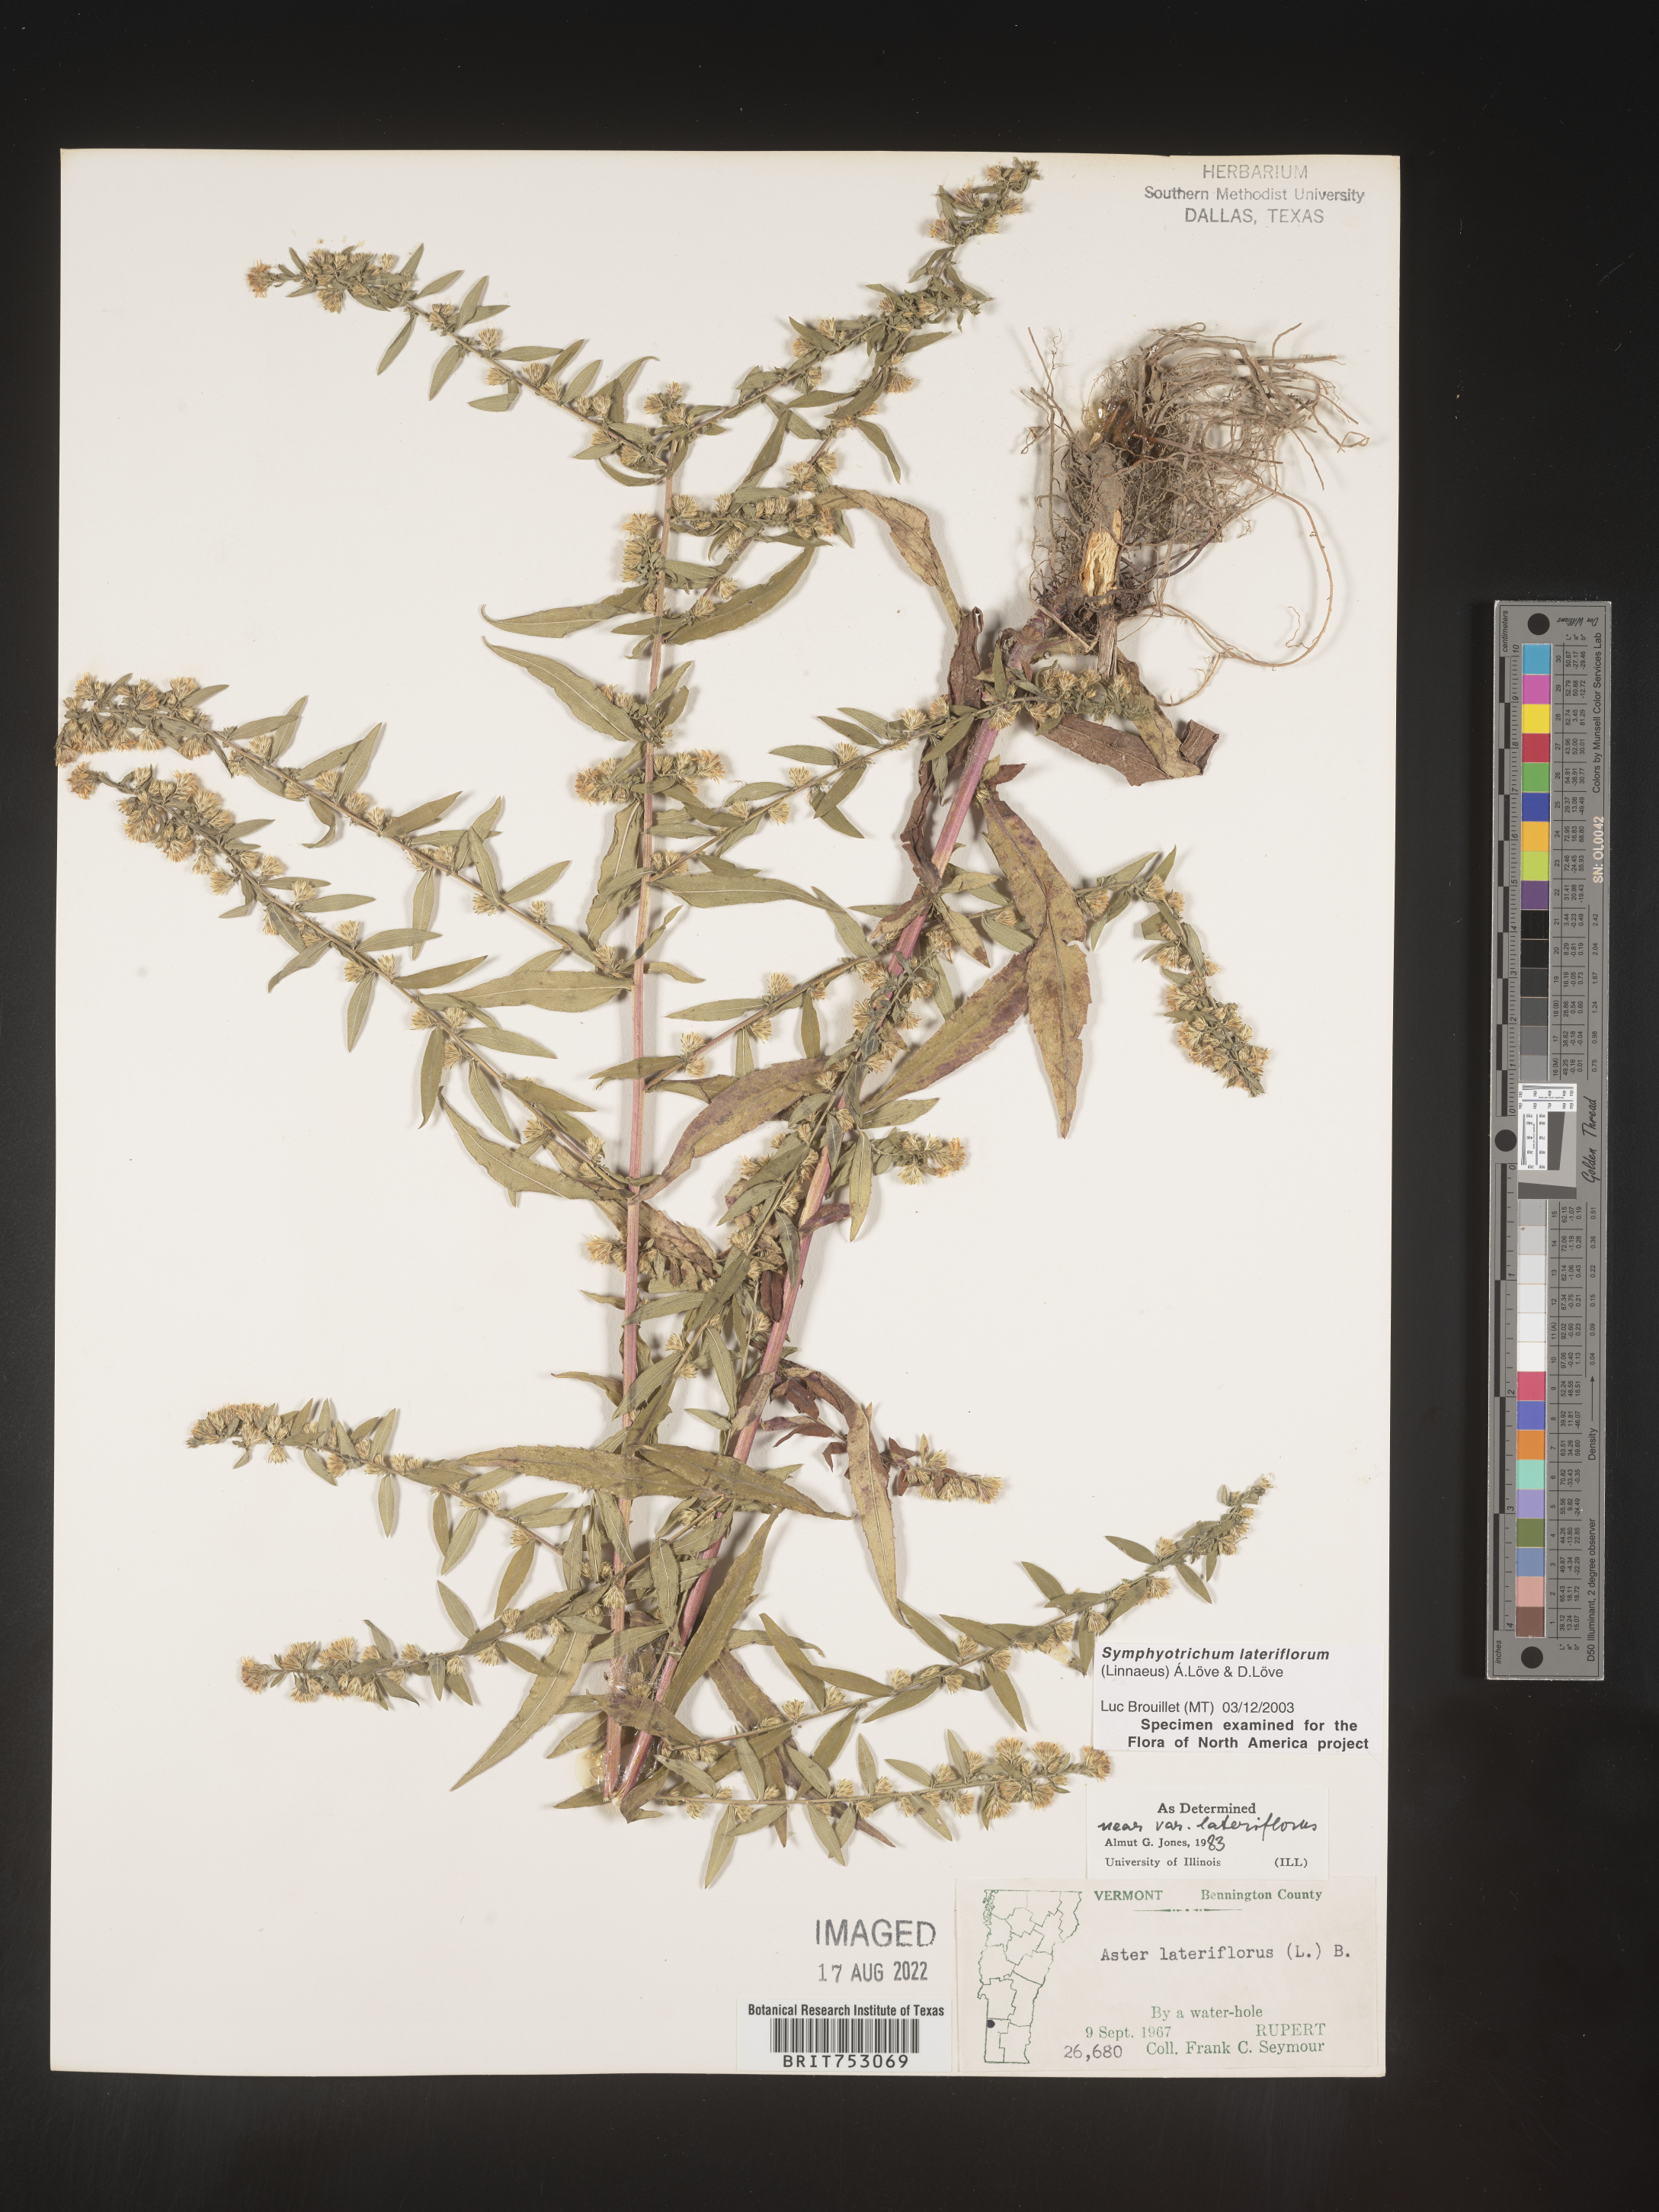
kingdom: Plantae
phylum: Tracheophyta
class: Magnoliopsida
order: Asterales
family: Asteraceae
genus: Symphyotrichum
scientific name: Symphyotrichum lateriflorum
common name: Calico aster
